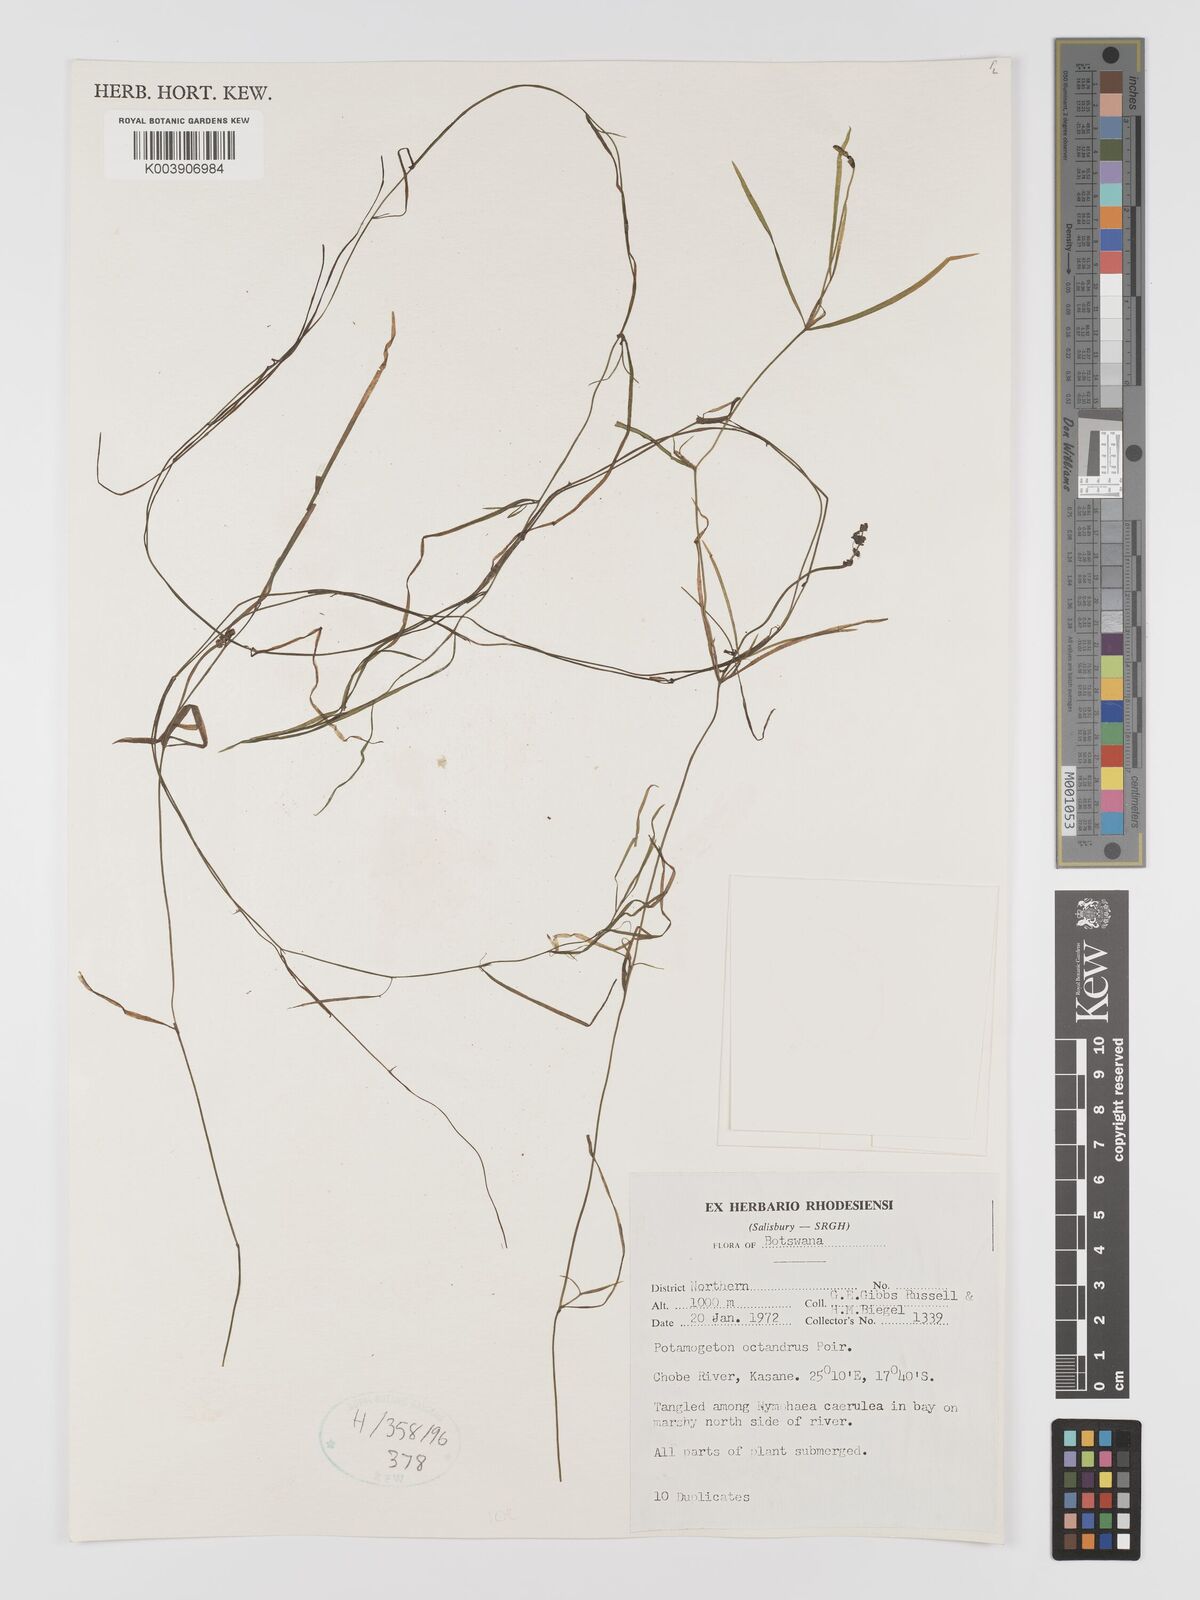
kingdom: Plantae
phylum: Tracheophyta
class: Liliopsida
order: Alismatales
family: Potamogetonaceae
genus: Potamogeton
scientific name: Potamogeton octandrus
